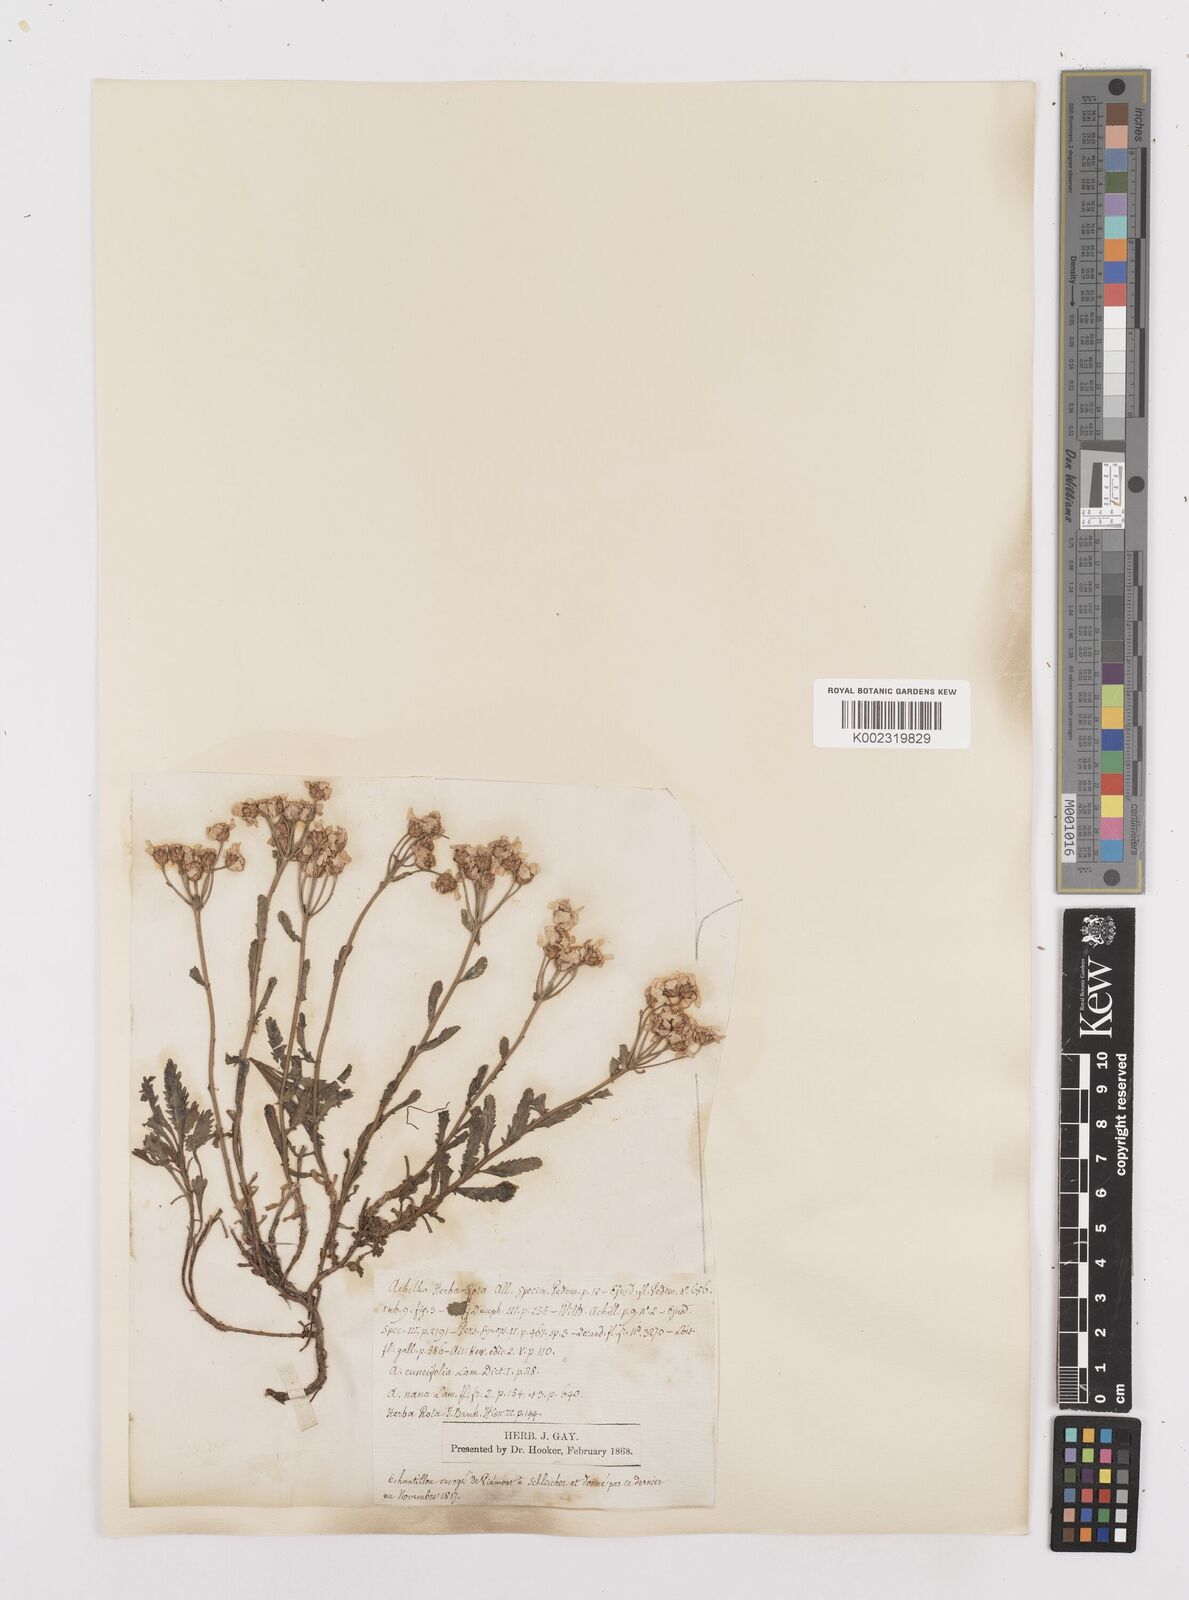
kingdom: Plantae
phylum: Tracheophyta
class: Magnoliopsida
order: Asterales
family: Asteraceae
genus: Achillea
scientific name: Achillea erba-rotta
